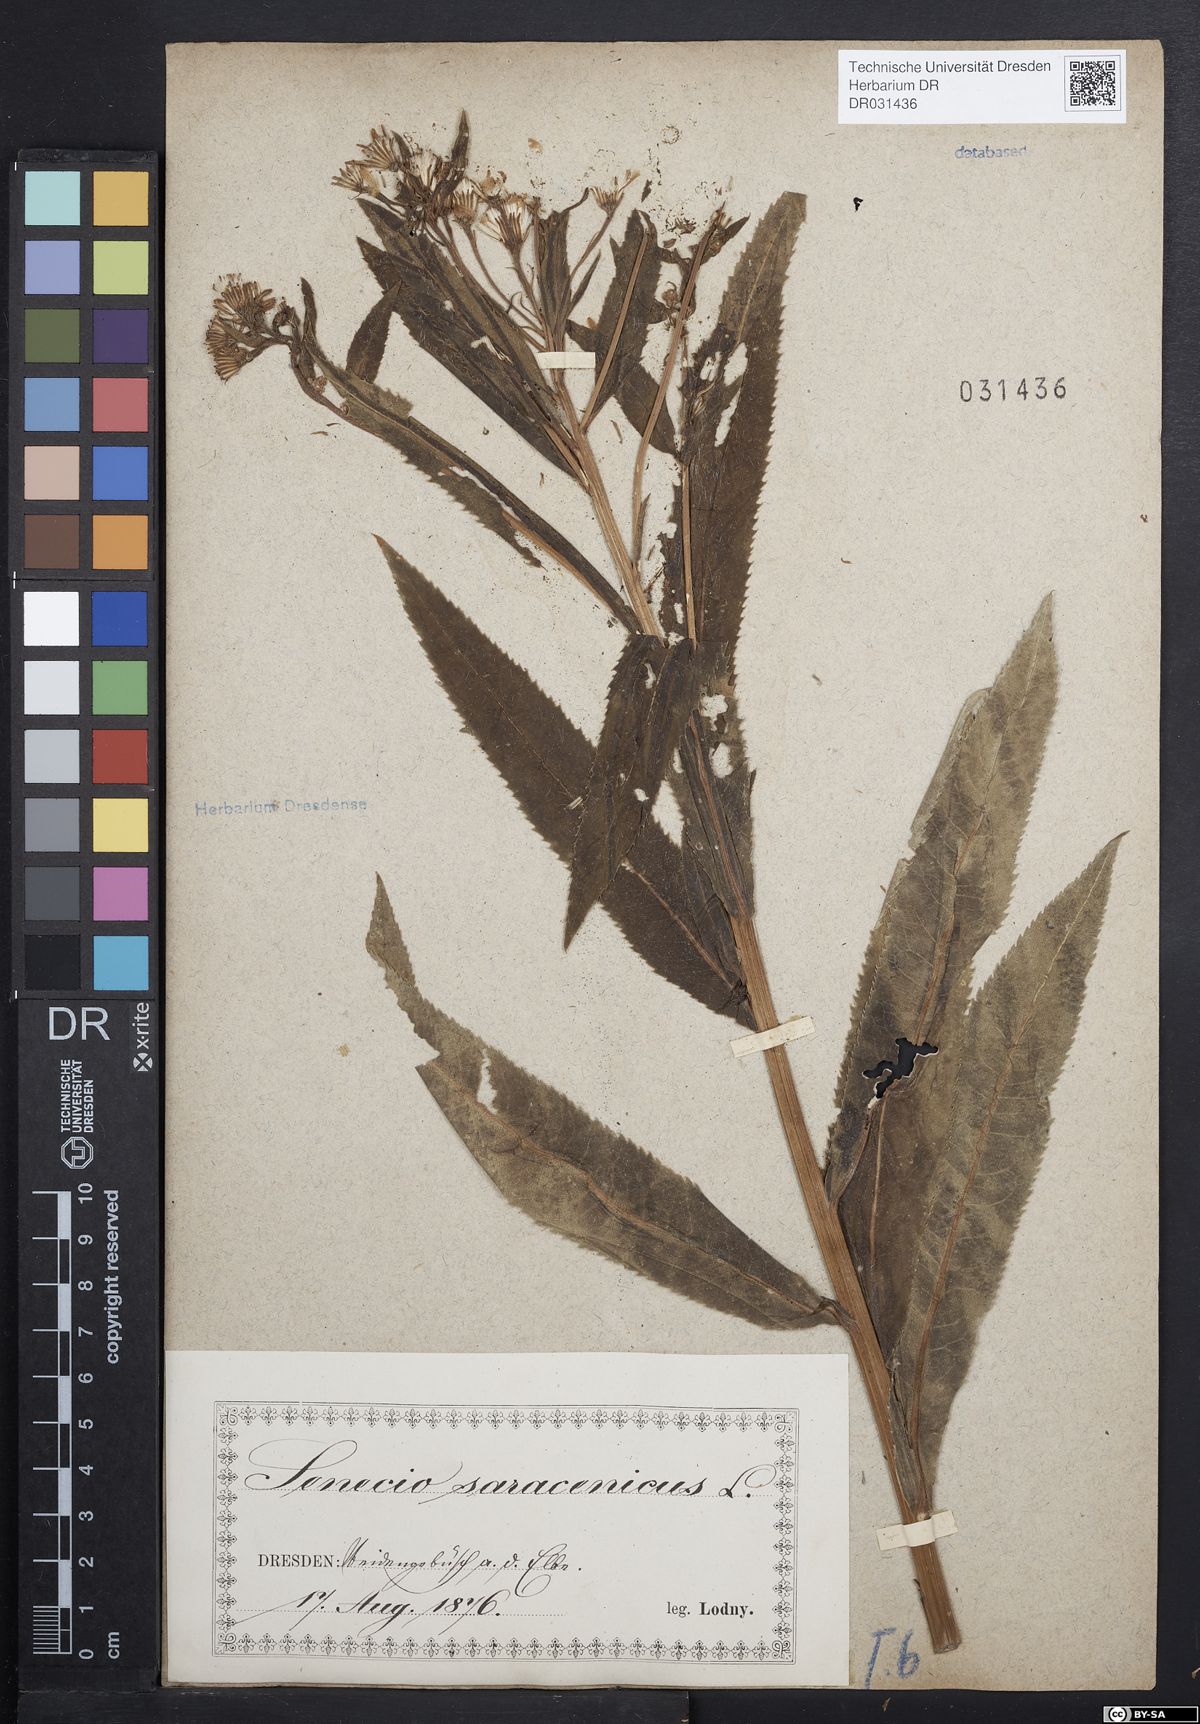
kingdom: Plantae
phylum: Tracheophyta
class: Magnoliopsida
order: Asterales
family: Asteraceae
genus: Senecio
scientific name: Senecio saracenicus
